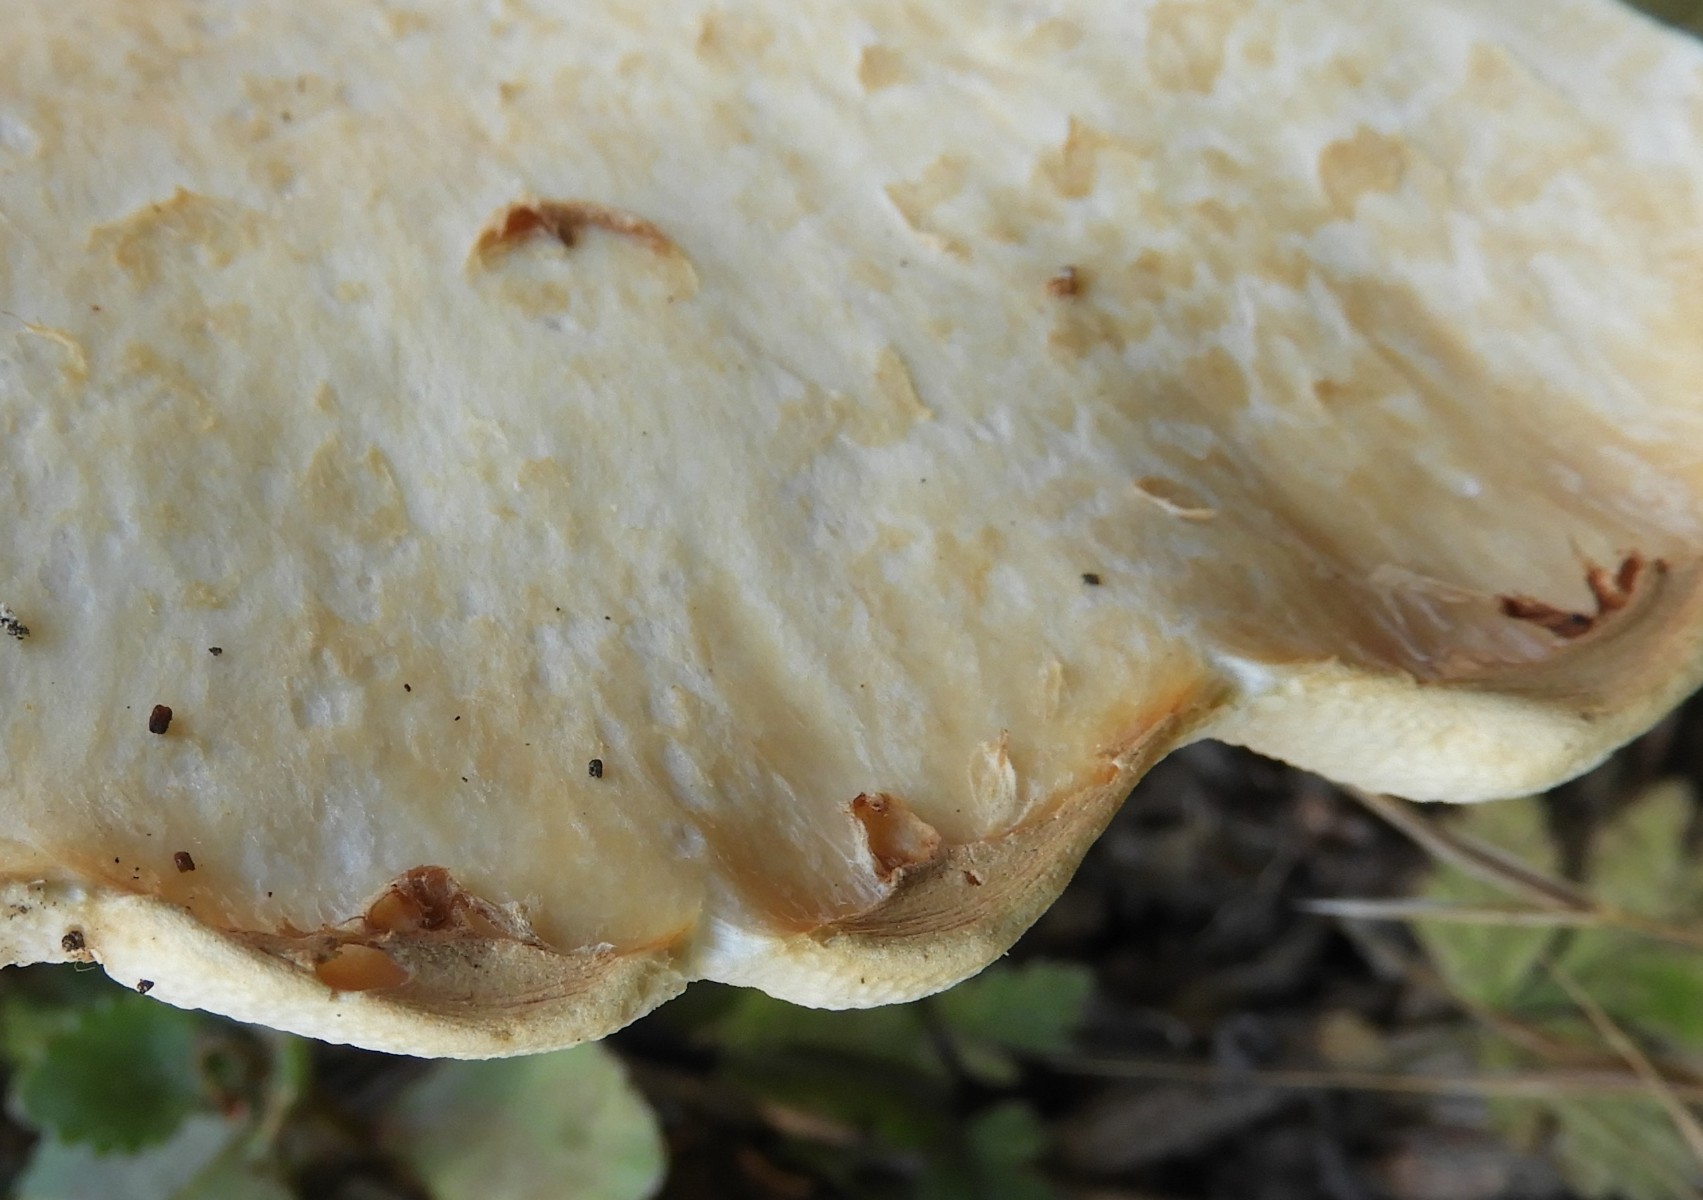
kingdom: Fungi
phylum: Basidiomycota
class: Agaricomycetes
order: Polyporales
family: Polyporaceae
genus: Cerioporus
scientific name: Cerioporus squamosus
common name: skællet stilkporesvamp
